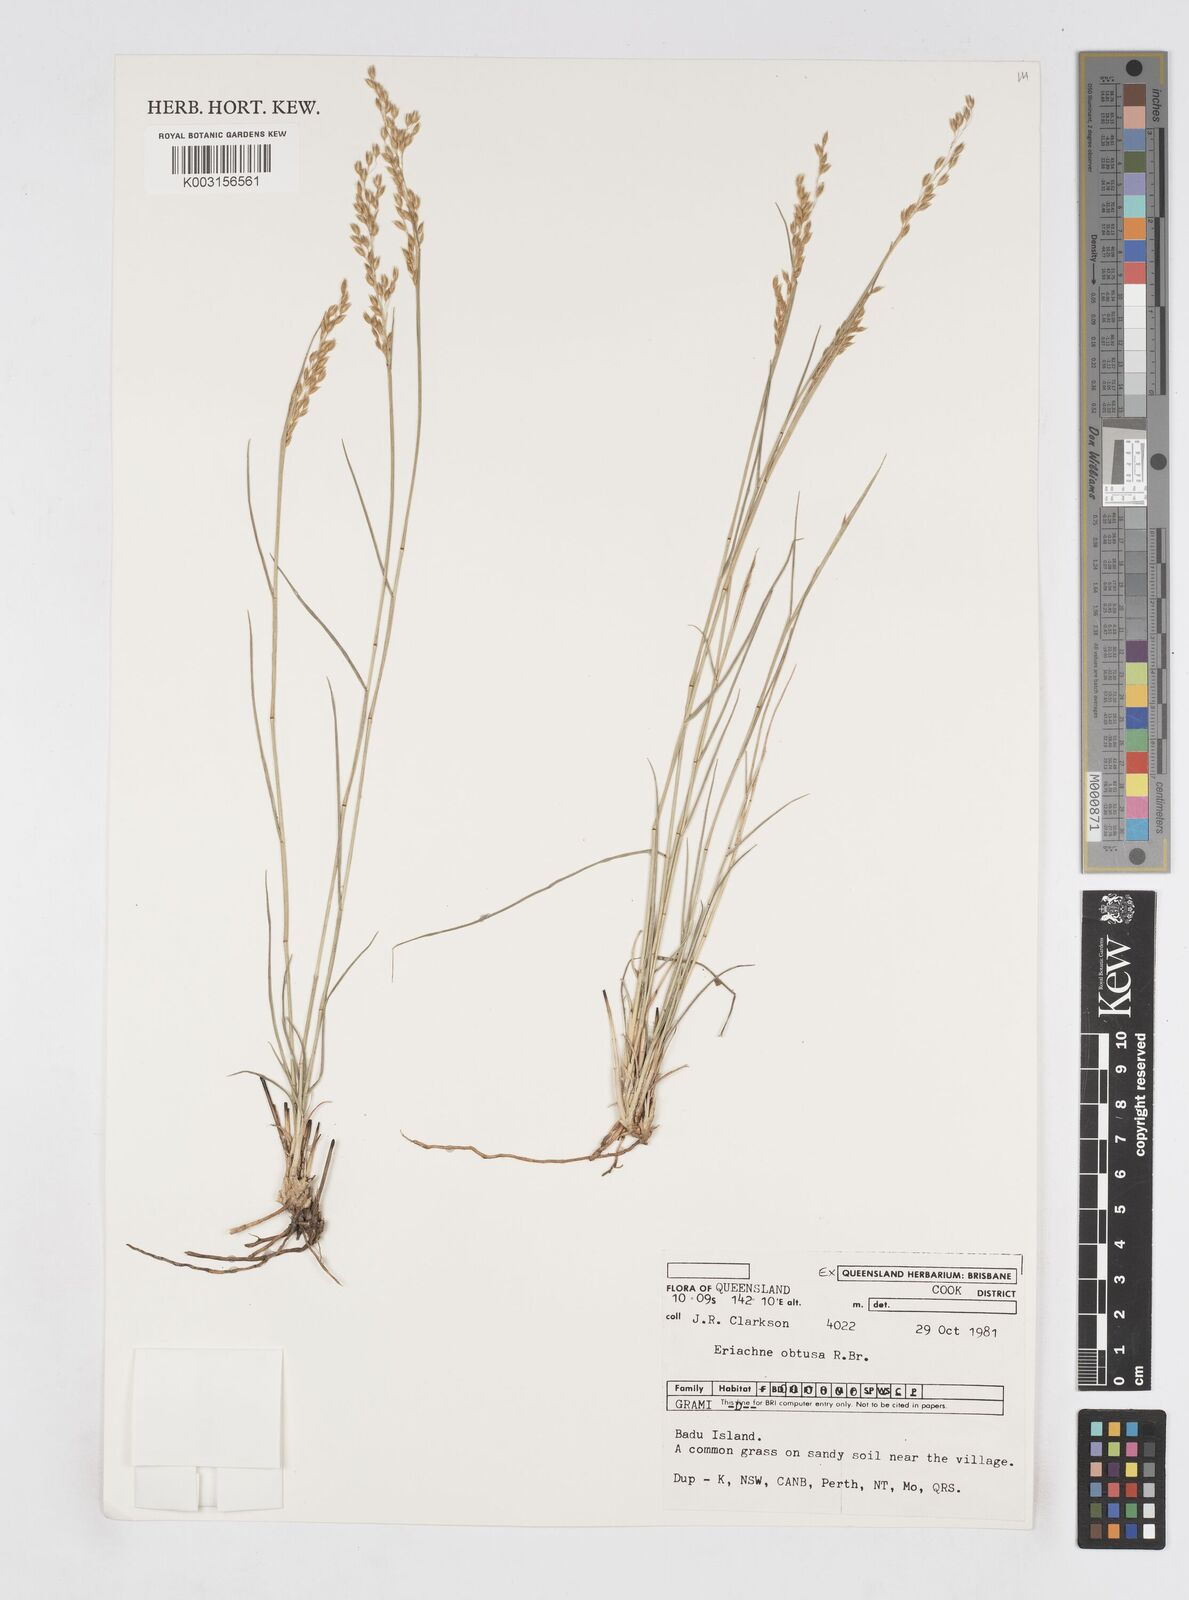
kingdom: Plantae
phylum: Tracheophyta
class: Liliopsida
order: Poales
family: Poaceae
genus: Eriachne
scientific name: Eriachne obtusa
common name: Northern wanderrie grass
